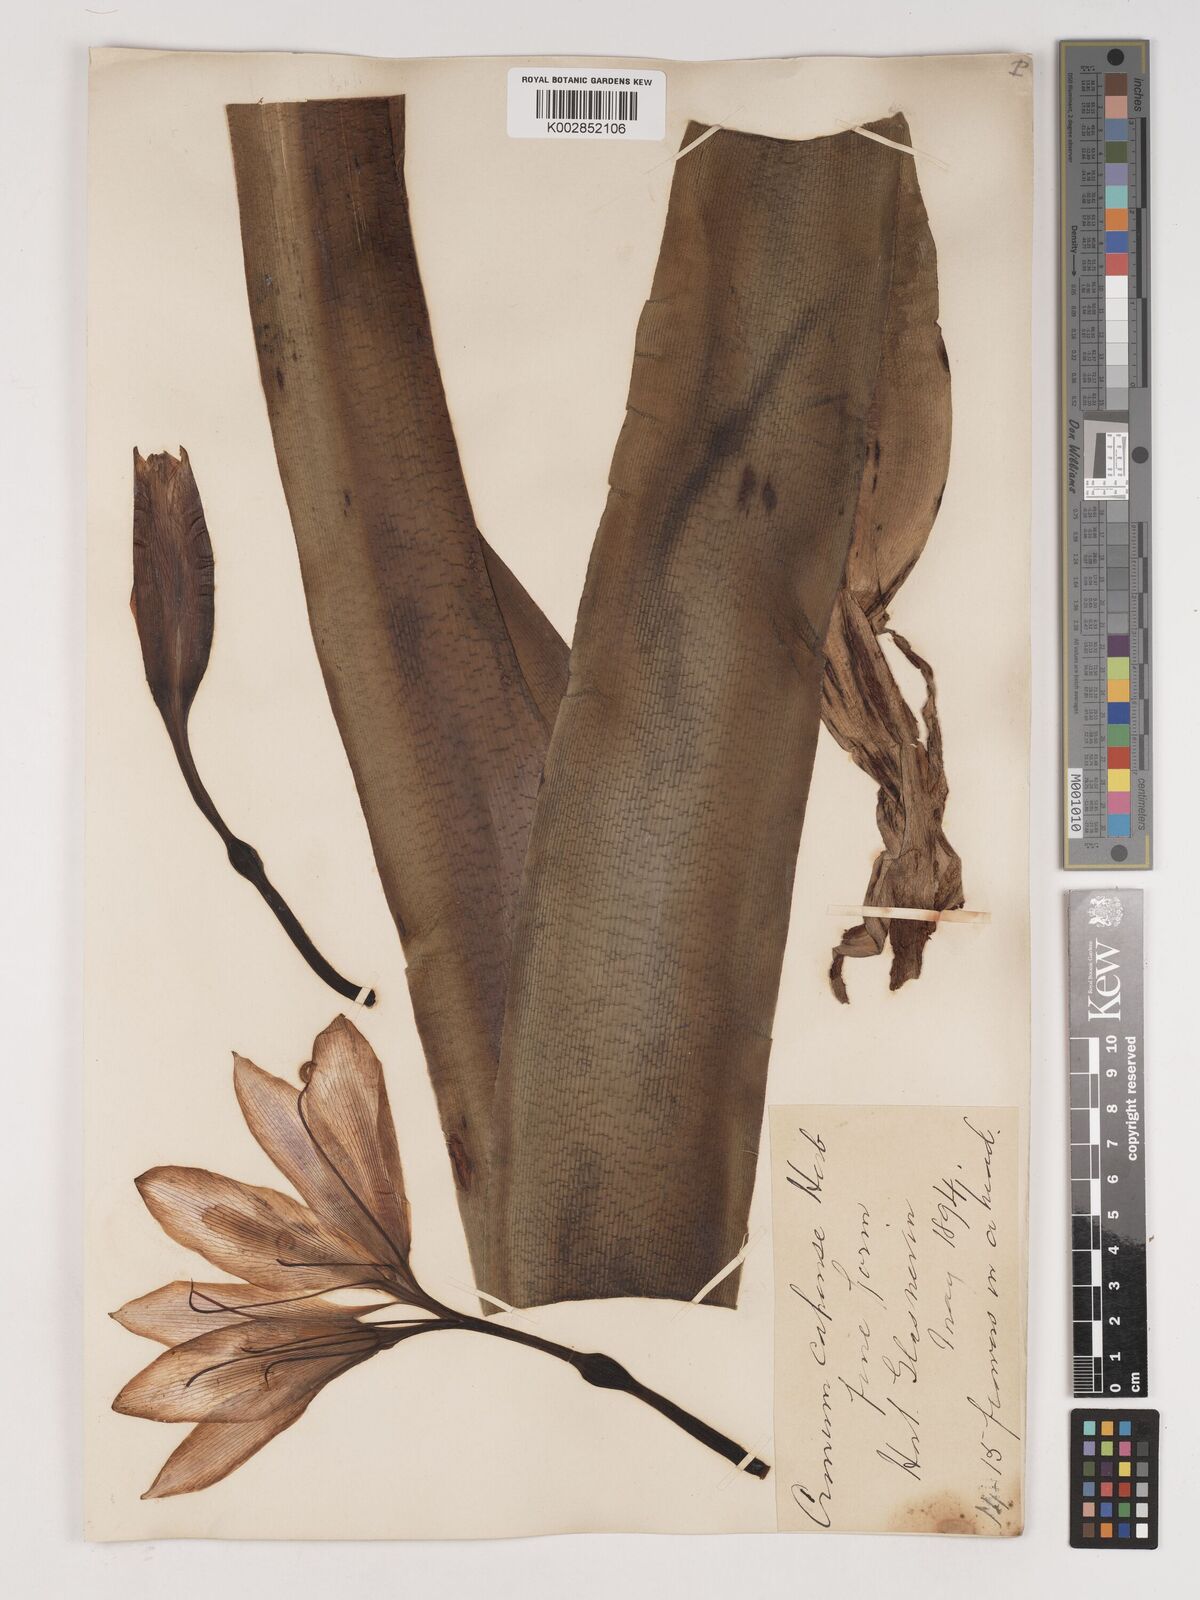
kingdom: Plantae
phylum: Tracheophyta
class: Liliopsida
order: Asparagales
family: Amaryllidaceae
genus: Crinum
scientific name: Crinum bulbispermum
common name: Hardy swamplily
